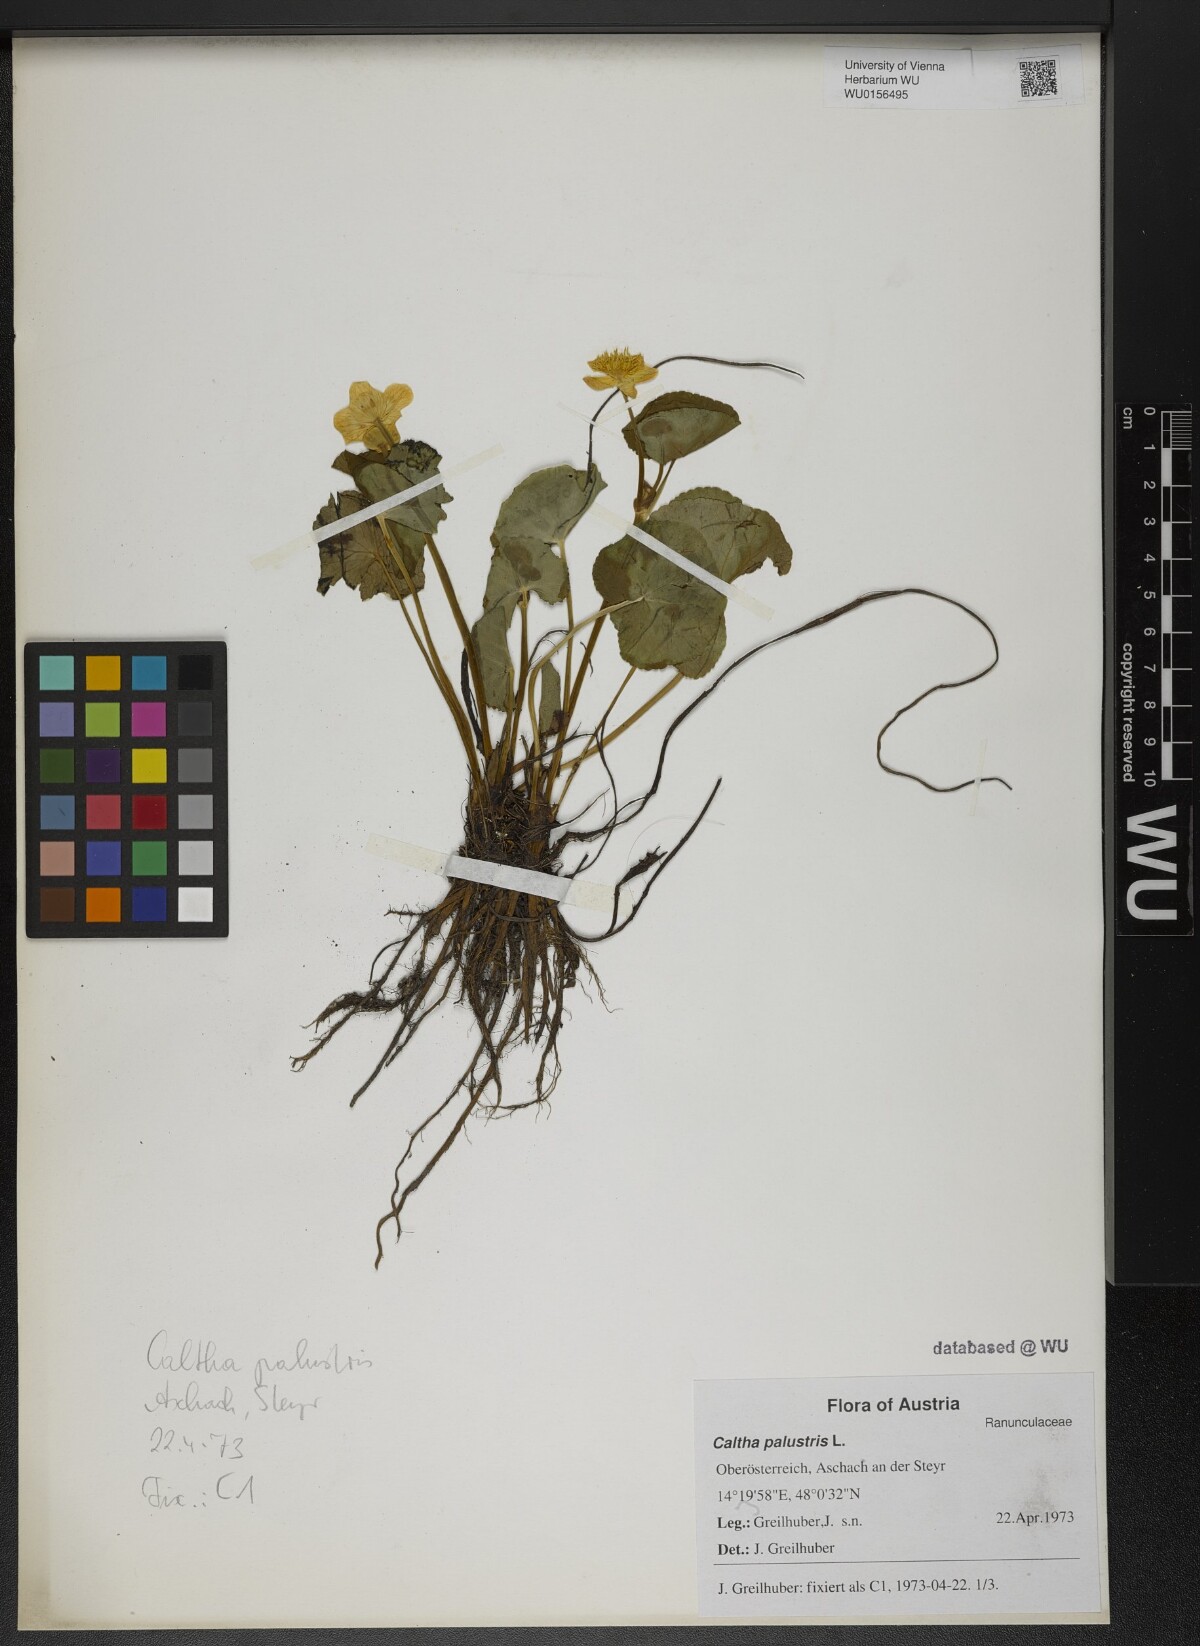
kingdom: Plantae
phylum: Tracheophyta
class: Magnoliopsida
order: Ranunculales
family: Ranunculaceae
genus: Caltha
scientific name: Caltha palustris
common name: Marsh marigold
